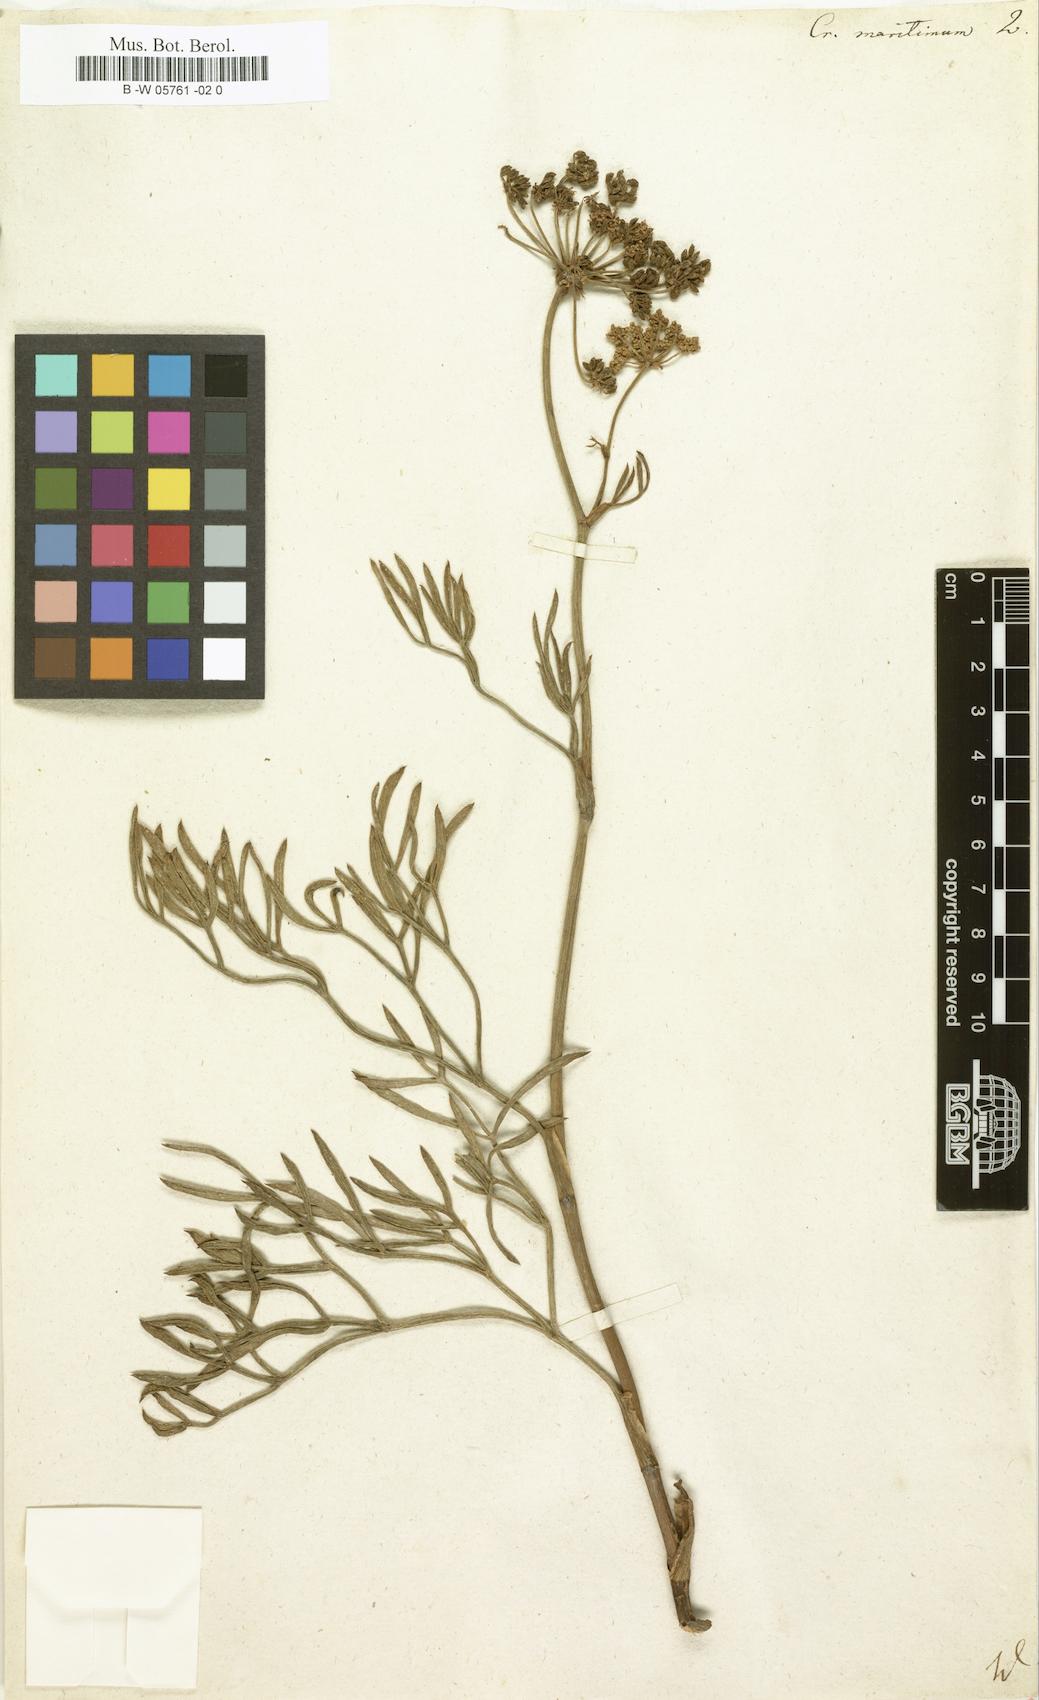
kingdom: Plantae
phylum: Tracheophyta
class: Magnoliopsida
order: Apiales
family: Apiaceae
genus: Crithmum
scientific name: Crithmum maritimum
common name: Rock samphire
